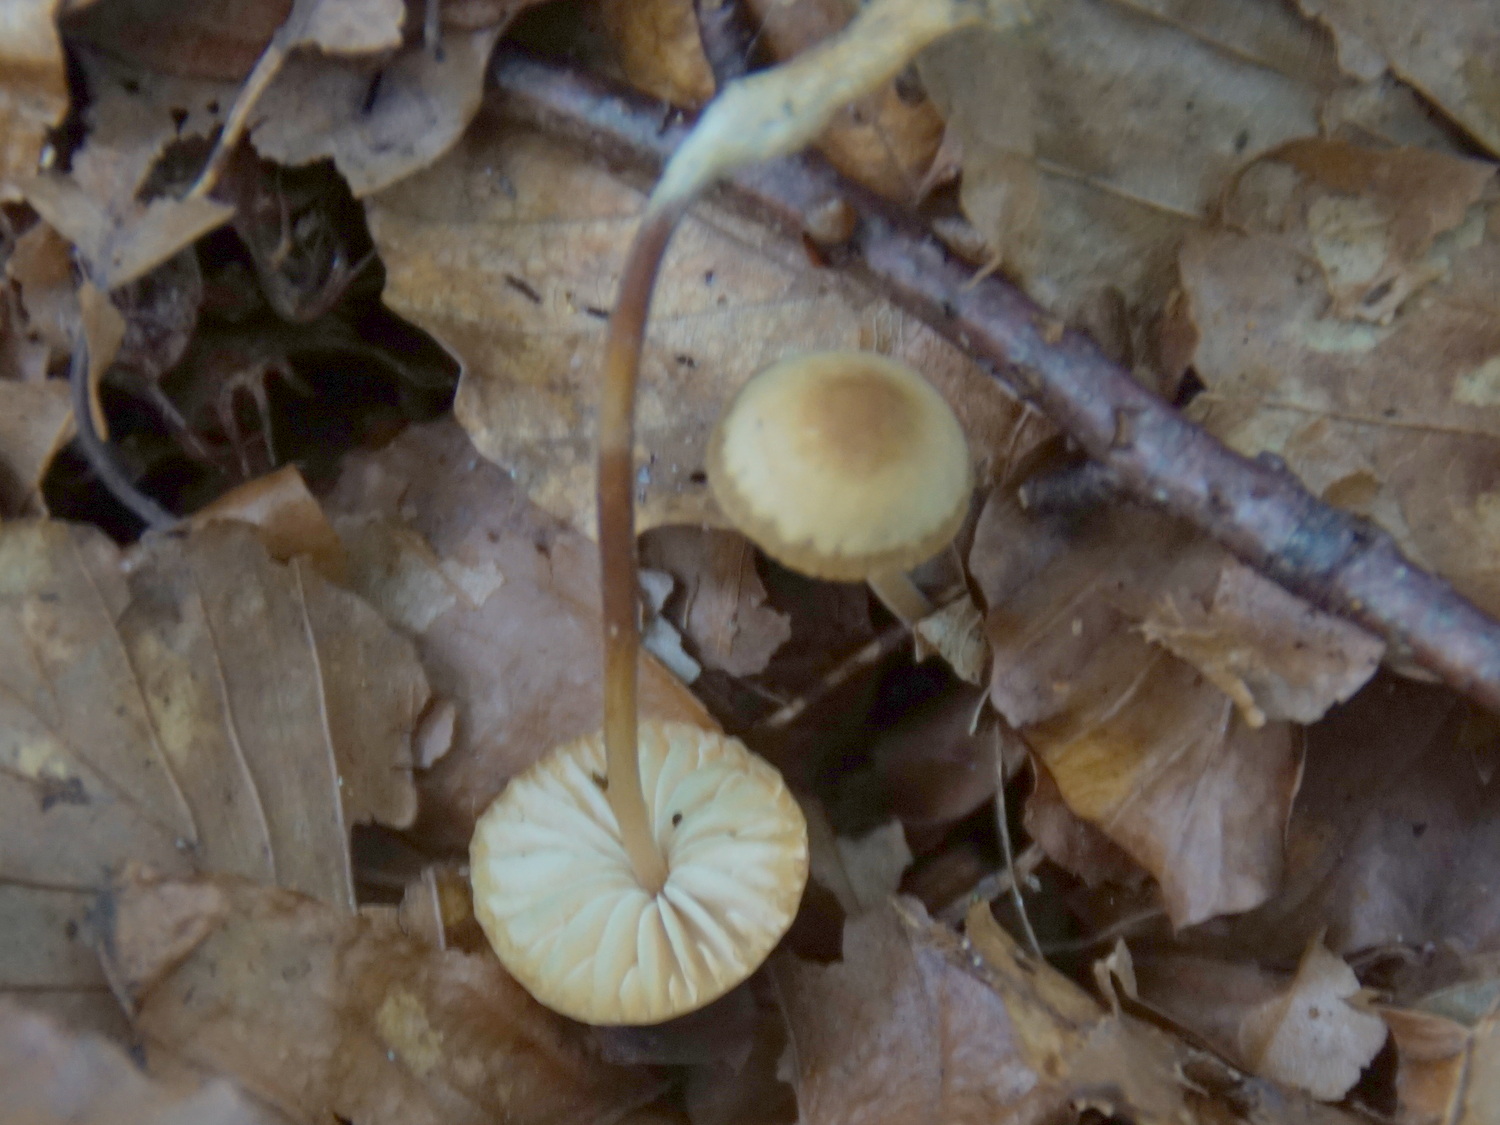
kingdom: Fungi
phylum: Basidiomycota
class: Agaricomycetes
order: Agaricales
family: Marasmiaceae
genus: Marasmius
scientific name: Marasmius torquescens
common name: filtfodet bruskhat
